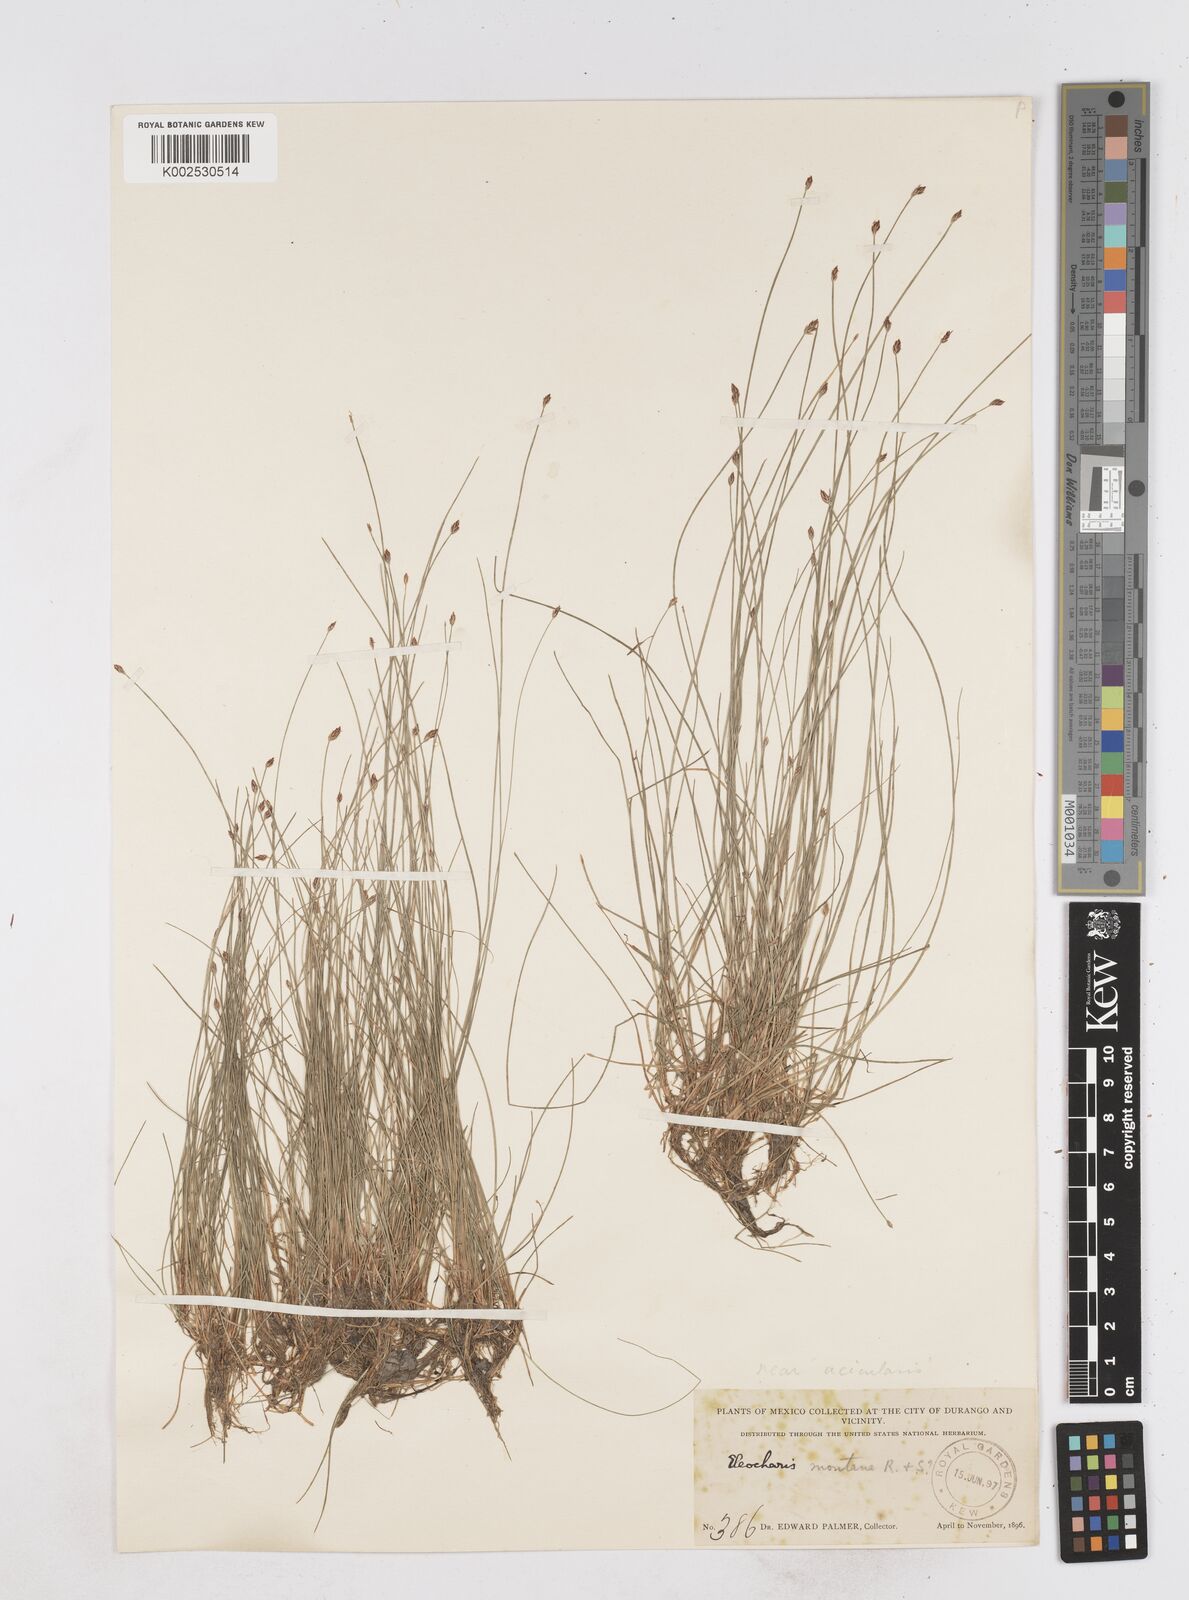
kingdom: Plantae
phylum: Tracheophyta
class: Liliopsida
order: Poales
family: Cyperaceae
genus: Eleocharis
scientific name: Eleocharis acicularis
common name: Needle spike-rush
